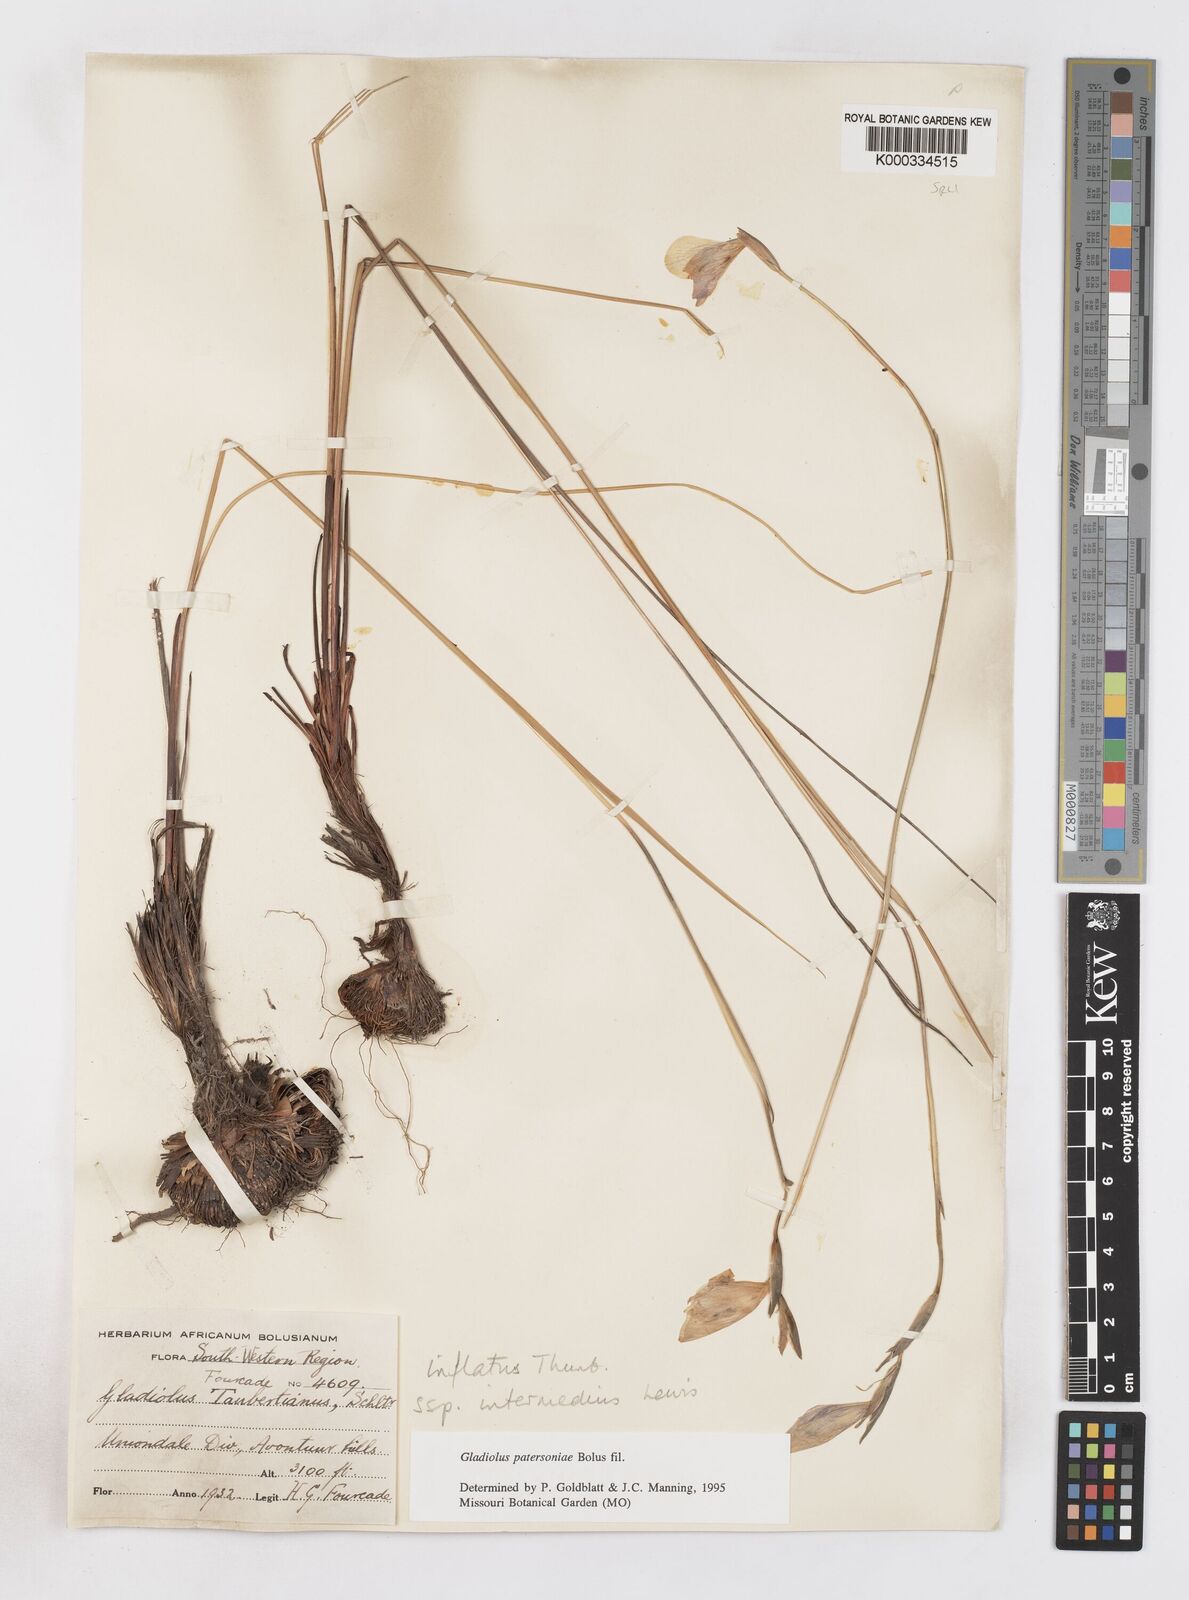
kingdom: Plantae
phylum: Tracheophyta
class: Liliopsida
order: Asparagales
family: Iridaceae
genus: Gladiolus
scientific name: Gladiolus patersoniae
